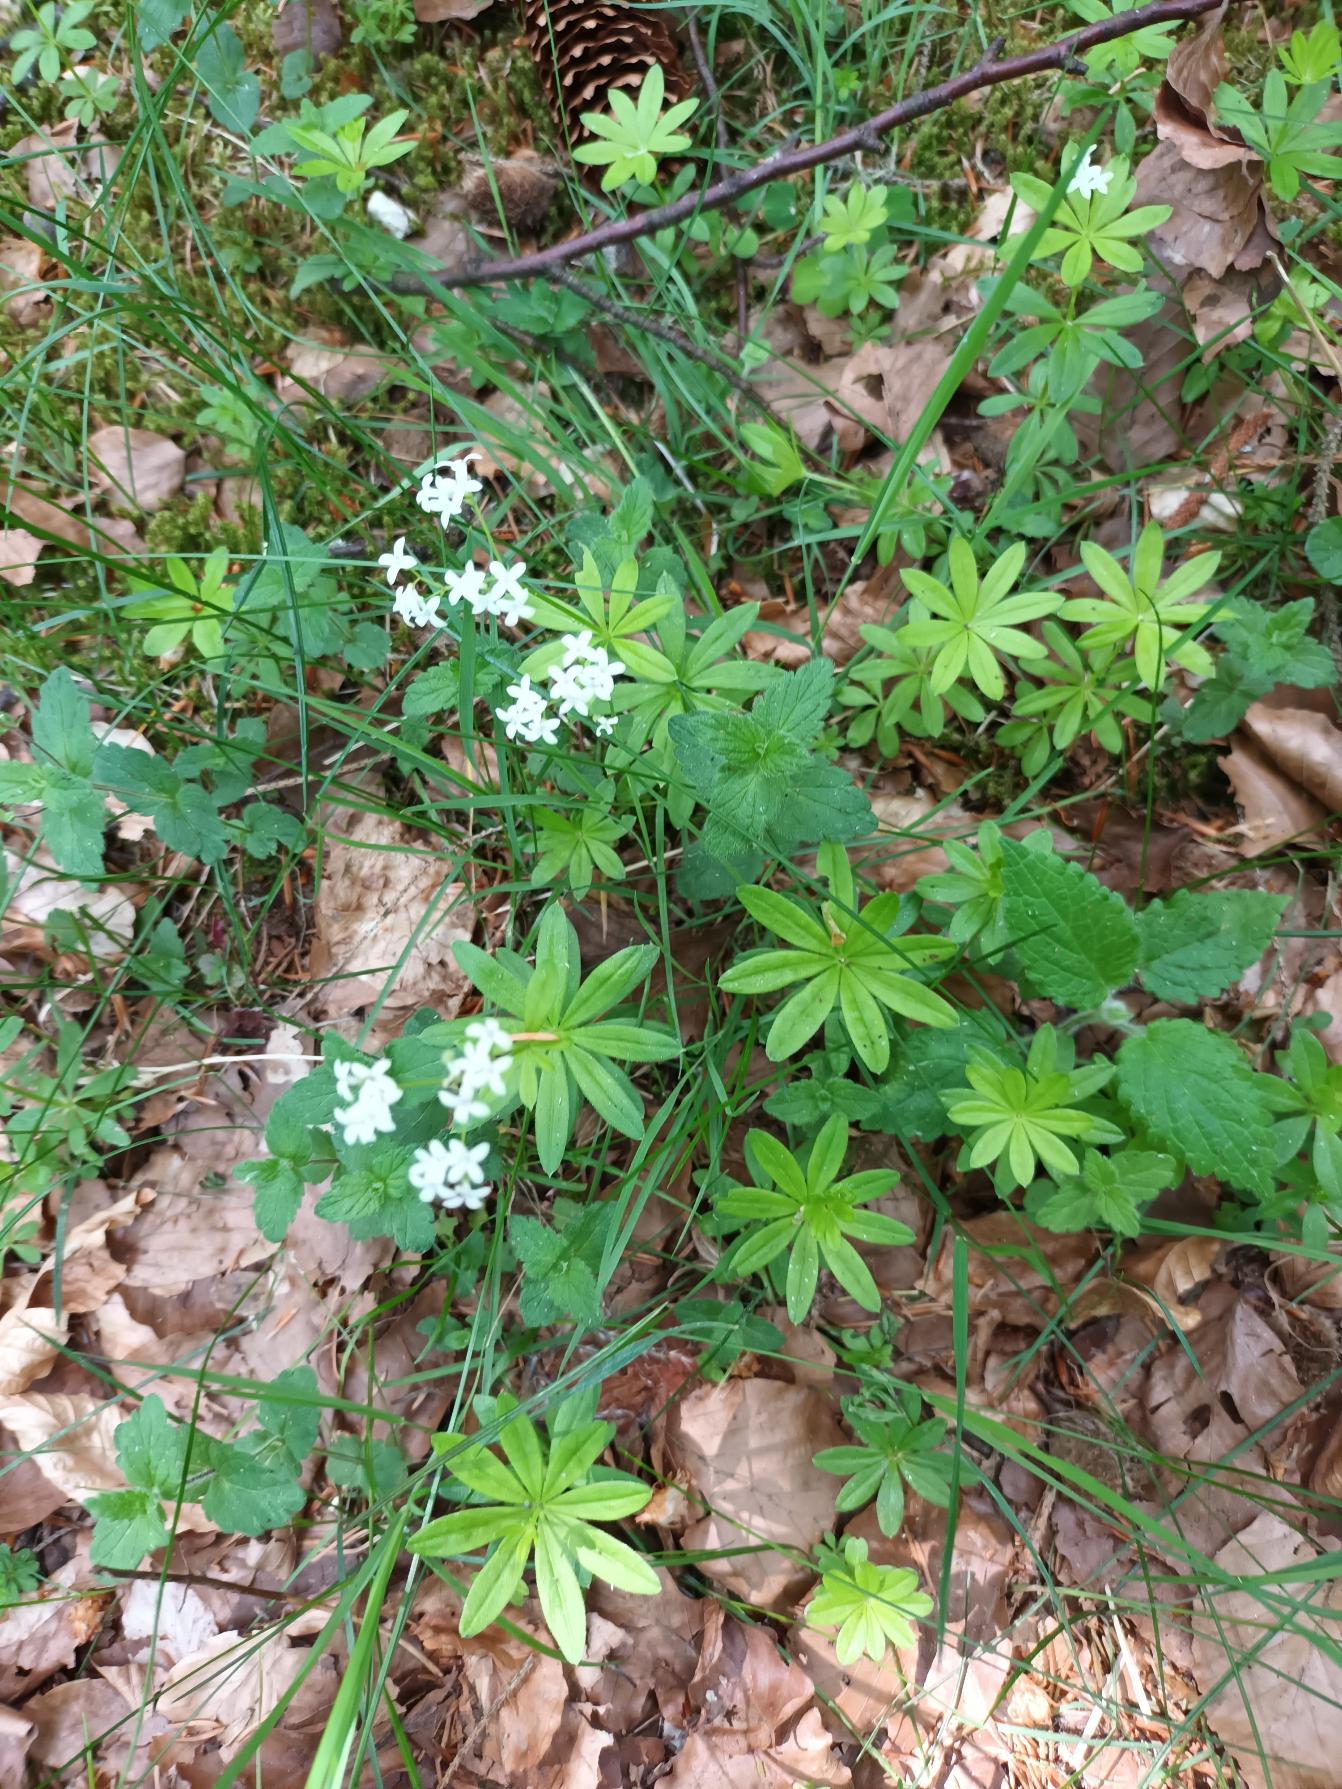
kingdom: Plantae
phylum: Tracheophyta
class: Magnoliopsida
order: Gentianales
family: Rubiaceae
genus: Galium
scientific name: Galium odoratum
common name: Skovmærke
